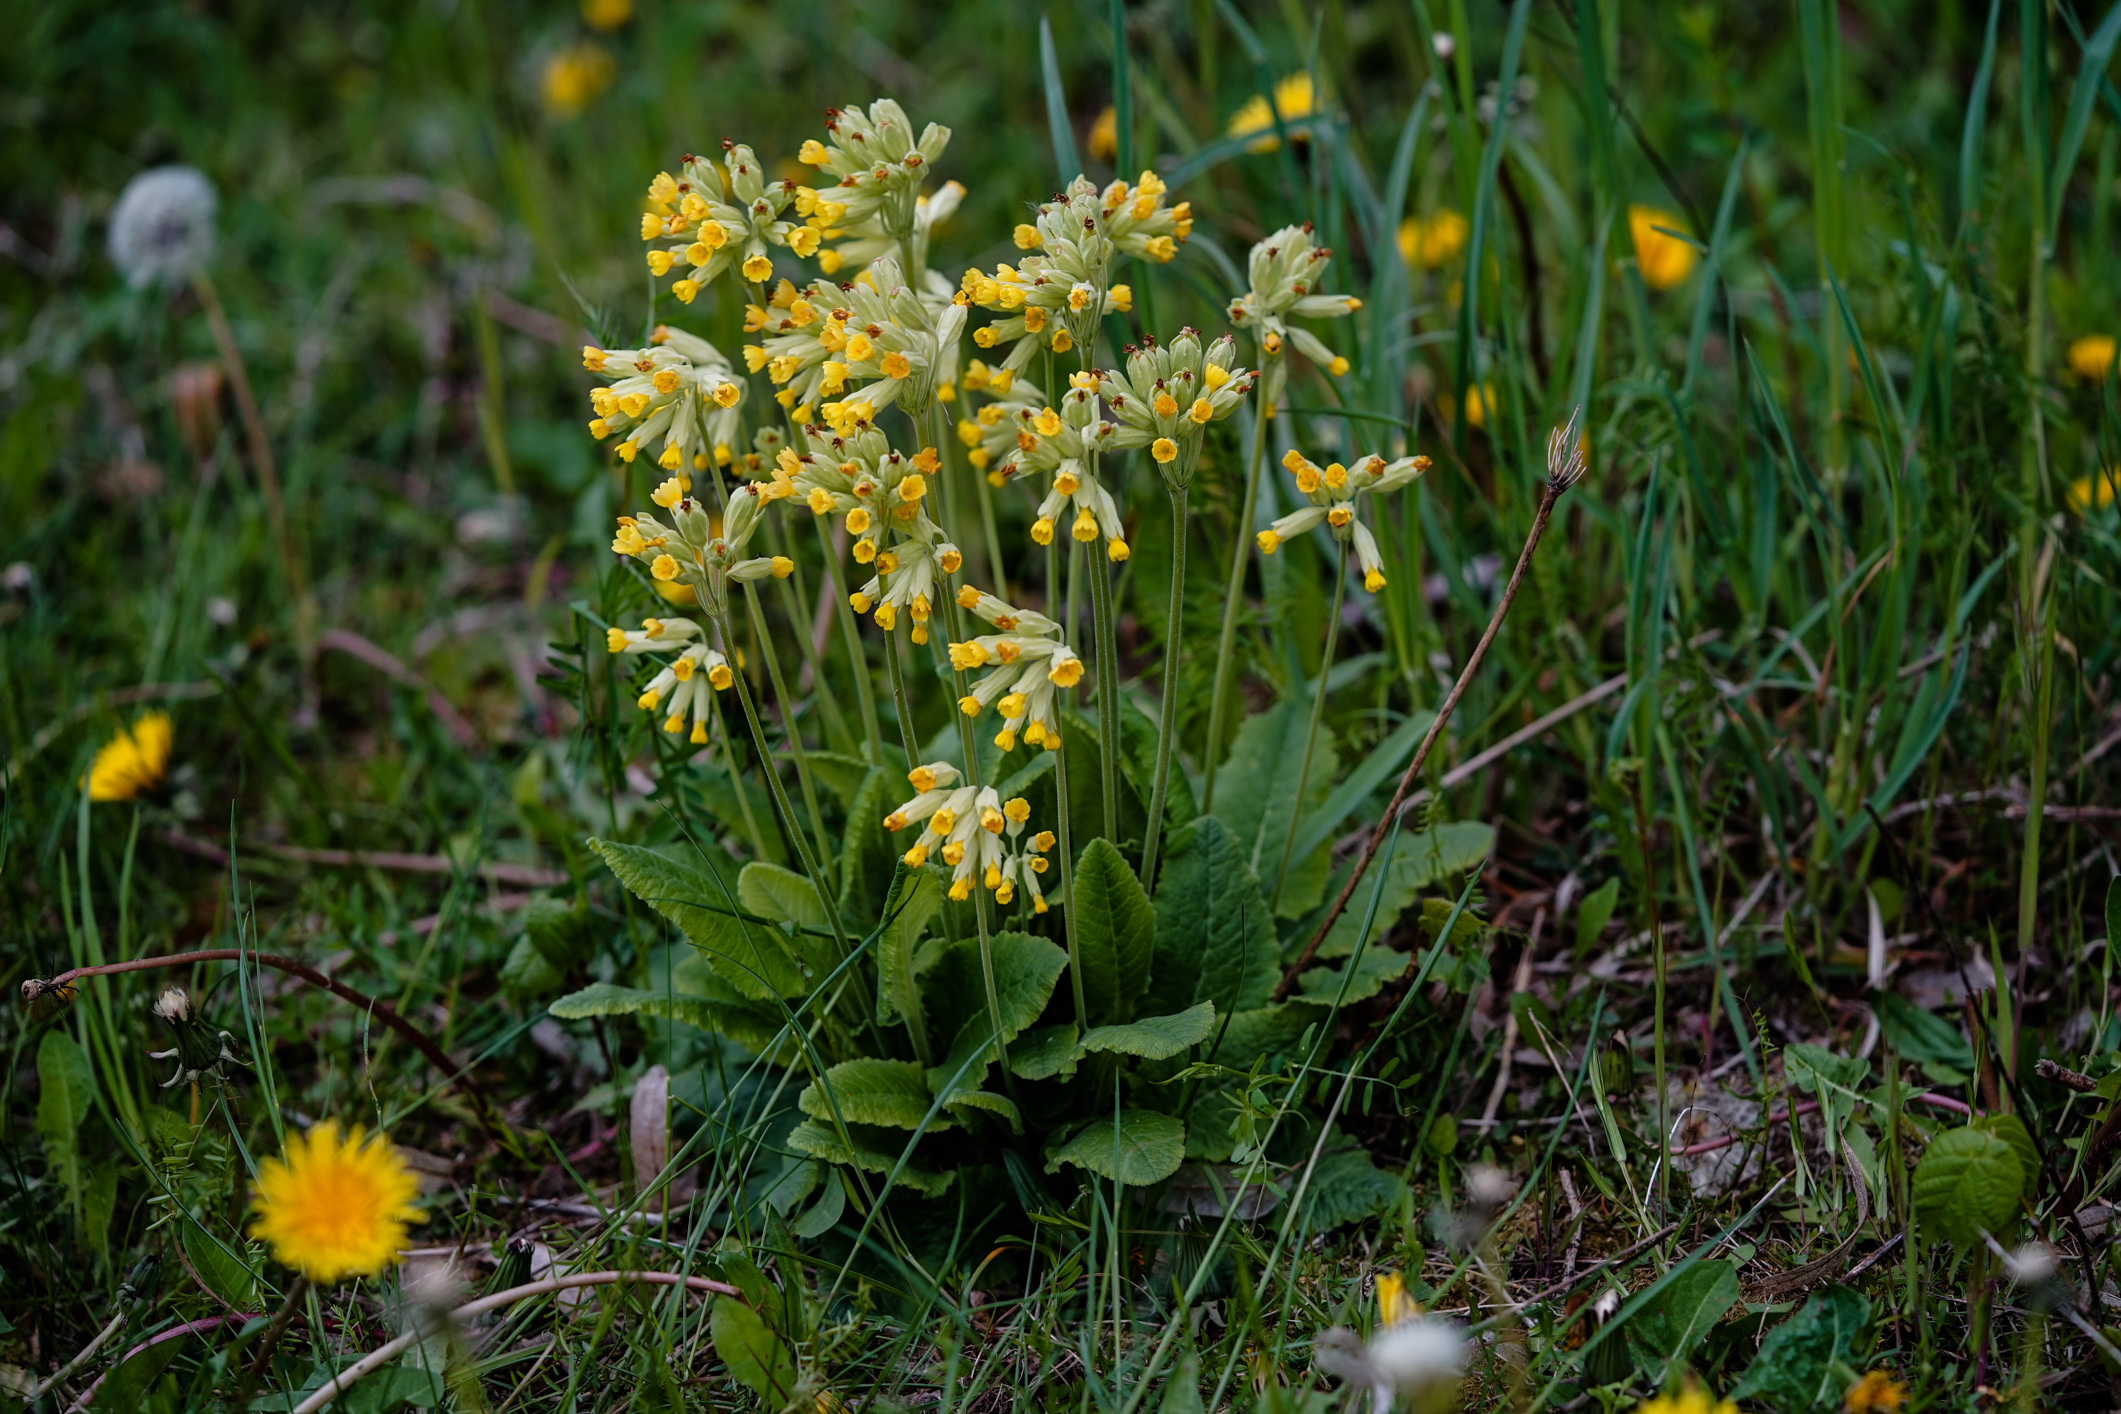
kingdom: Plantae
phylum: Tracheophyta
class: Magnoliopsida
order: Ericales
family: Primulaceae
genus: Primula
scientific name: Primula veris
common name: Cowslip
